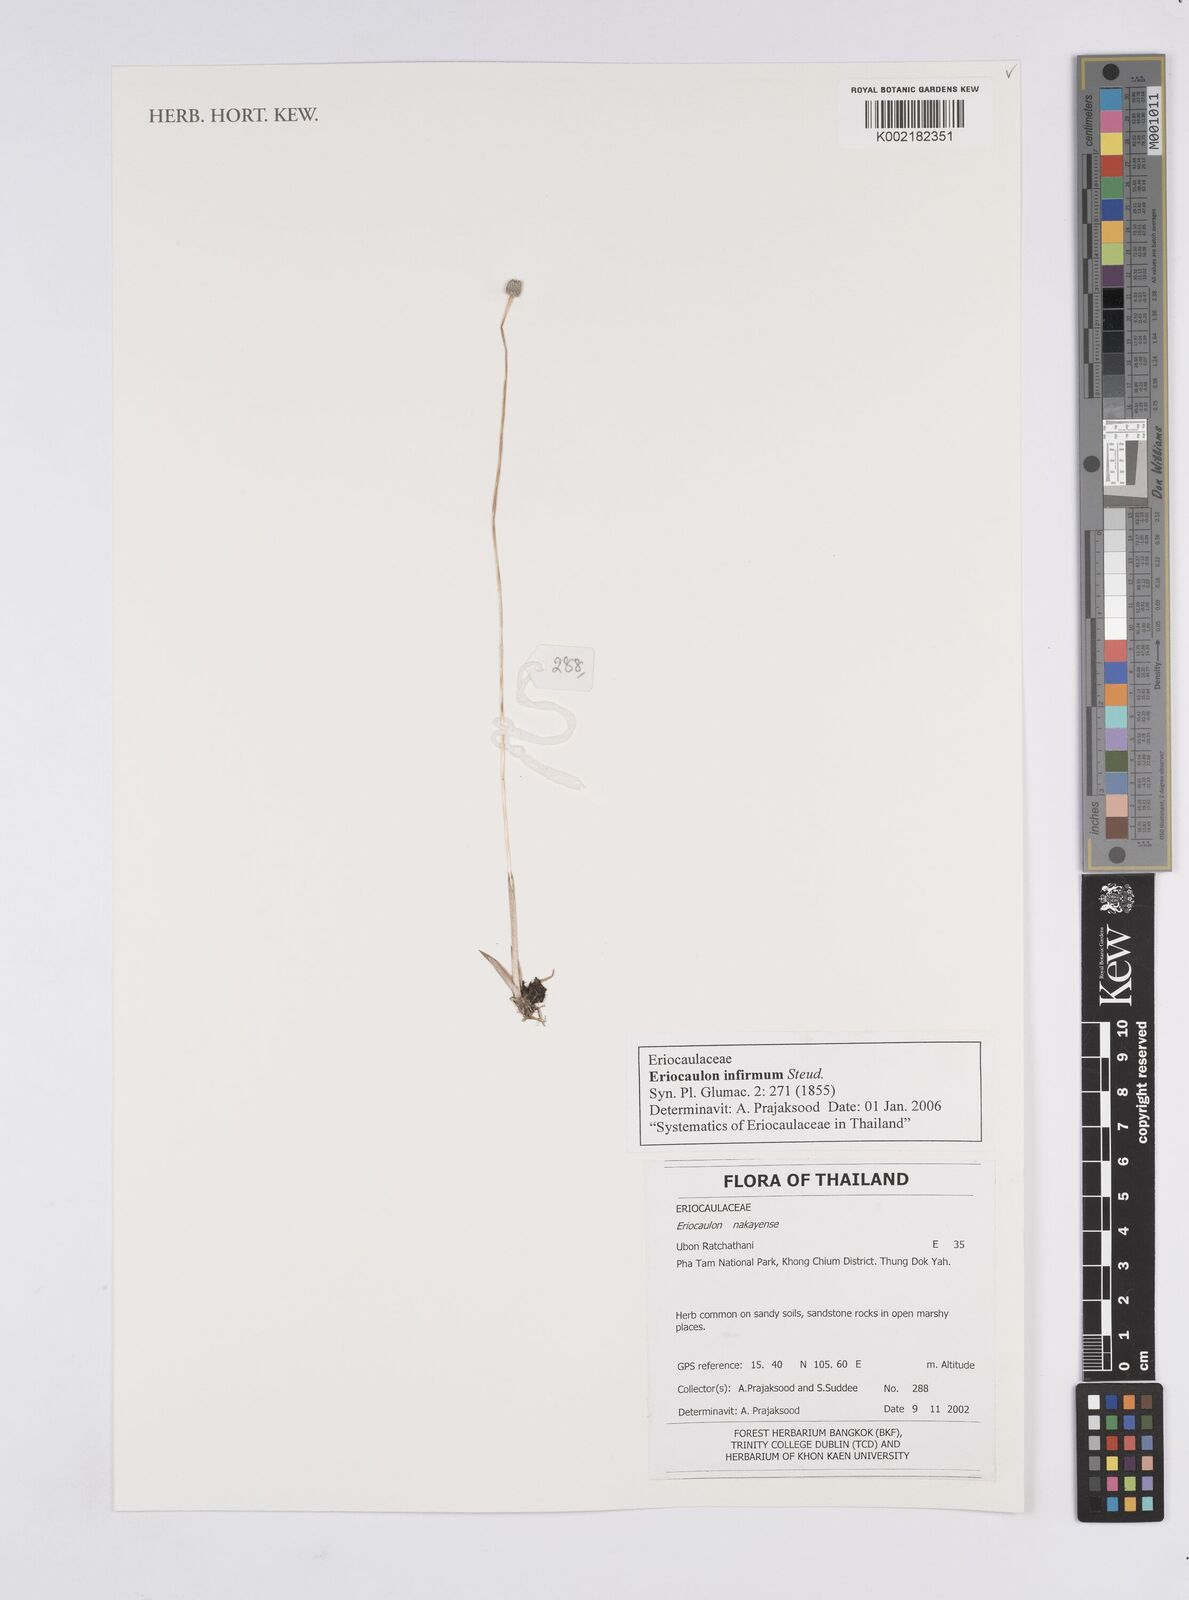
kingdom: Plantae
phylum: Tracheophyta
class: Liliopsida
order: Poales
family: Eriocaulaceae
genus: Eriocaulon
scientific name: Eriocaulon infirmum
